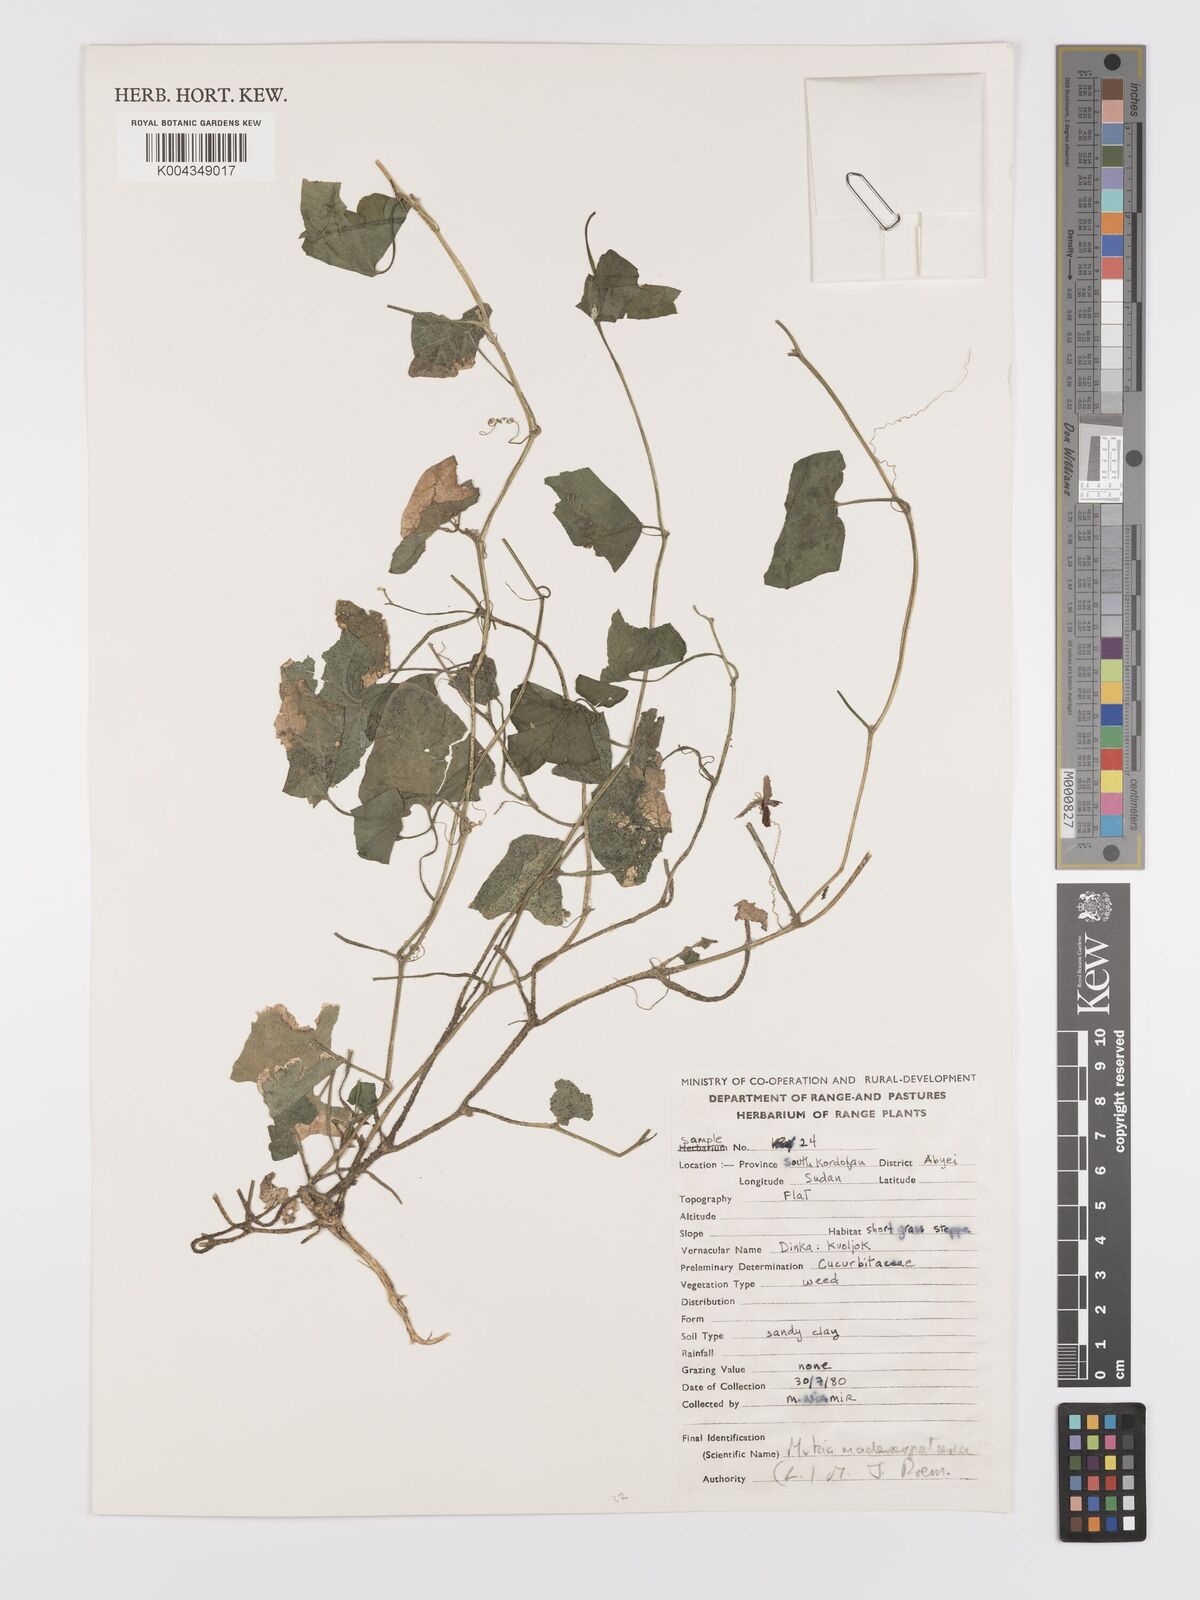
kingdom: Plantae
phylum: Tracheophyta
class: Magnoliopsida
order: Cucurbitales
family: Cucurbitaceae
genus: Cucumis
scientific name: Cucumis maderaspatanus
